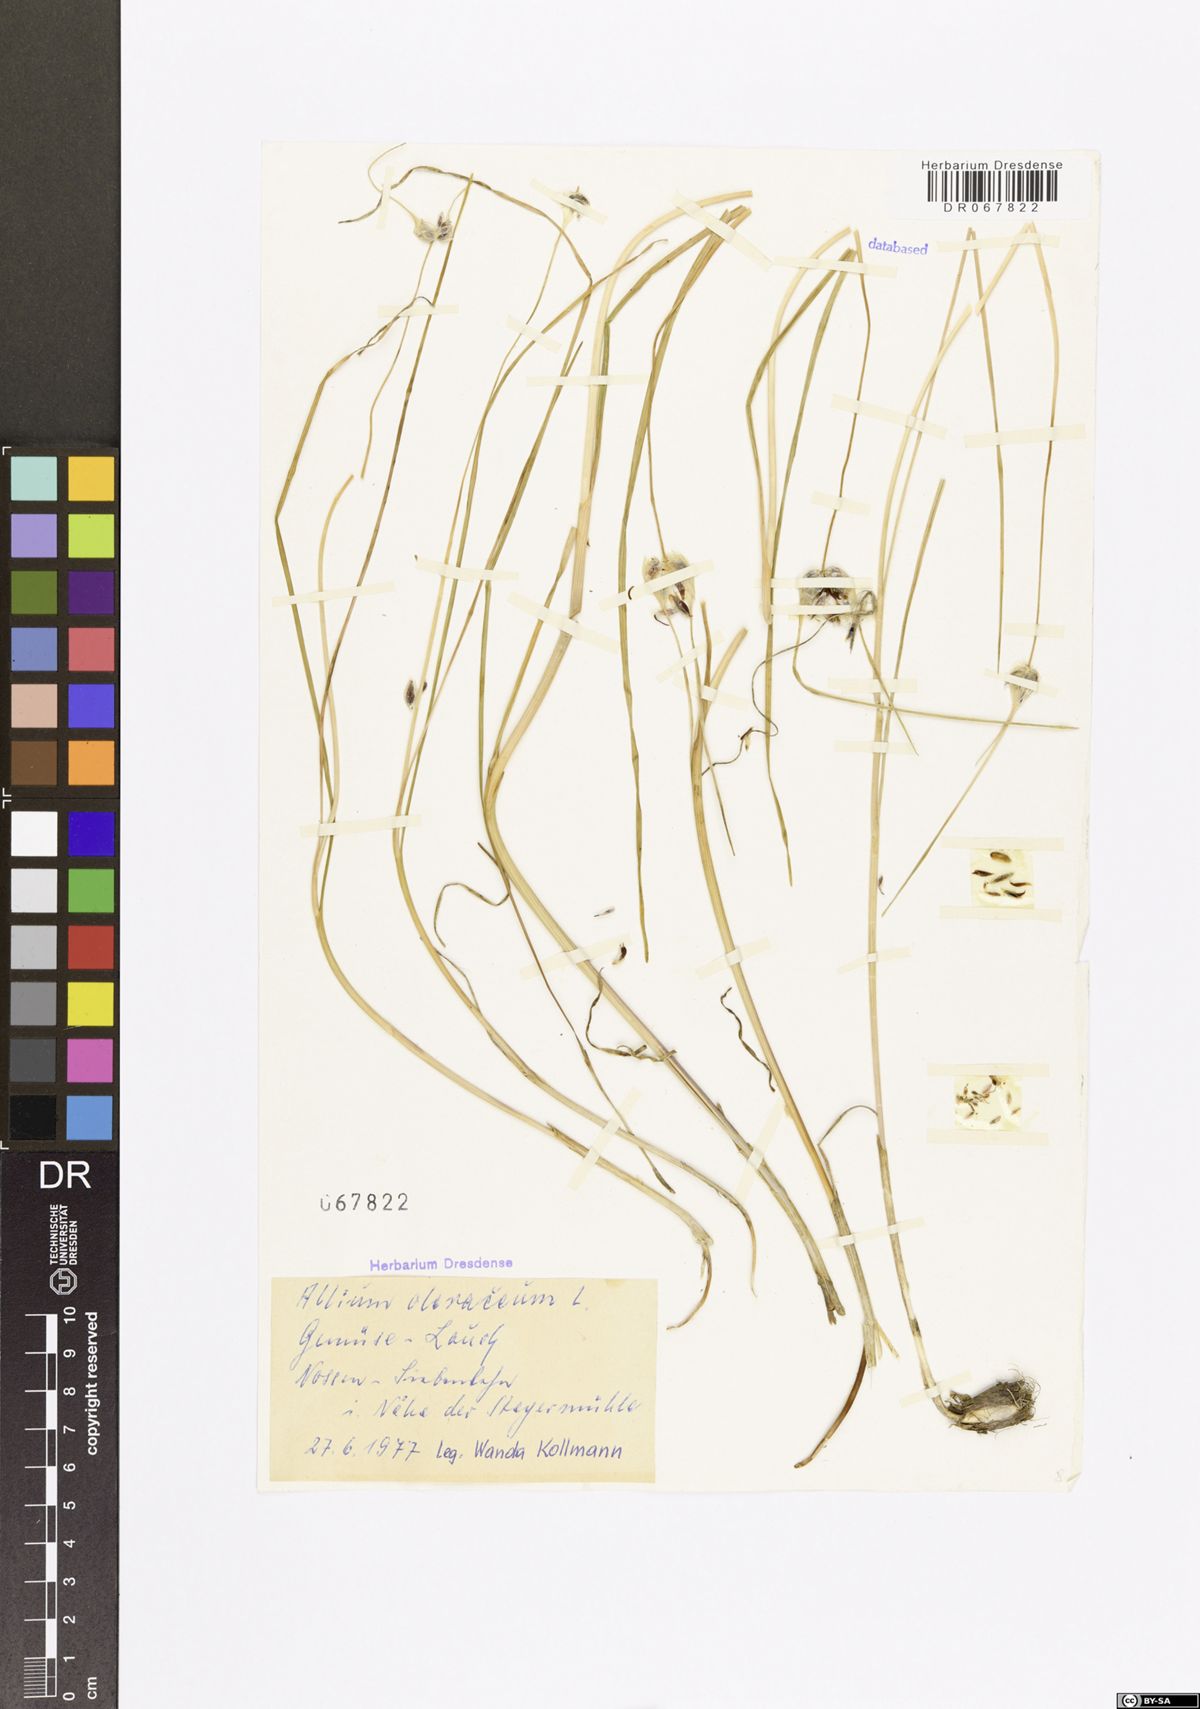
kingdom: Plantae
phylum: Tracheophyta
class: Liliopsida
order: Asparagales
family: Amaryllidaceae
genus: Allium
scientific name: Allium oleraceum
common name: Field garlic
